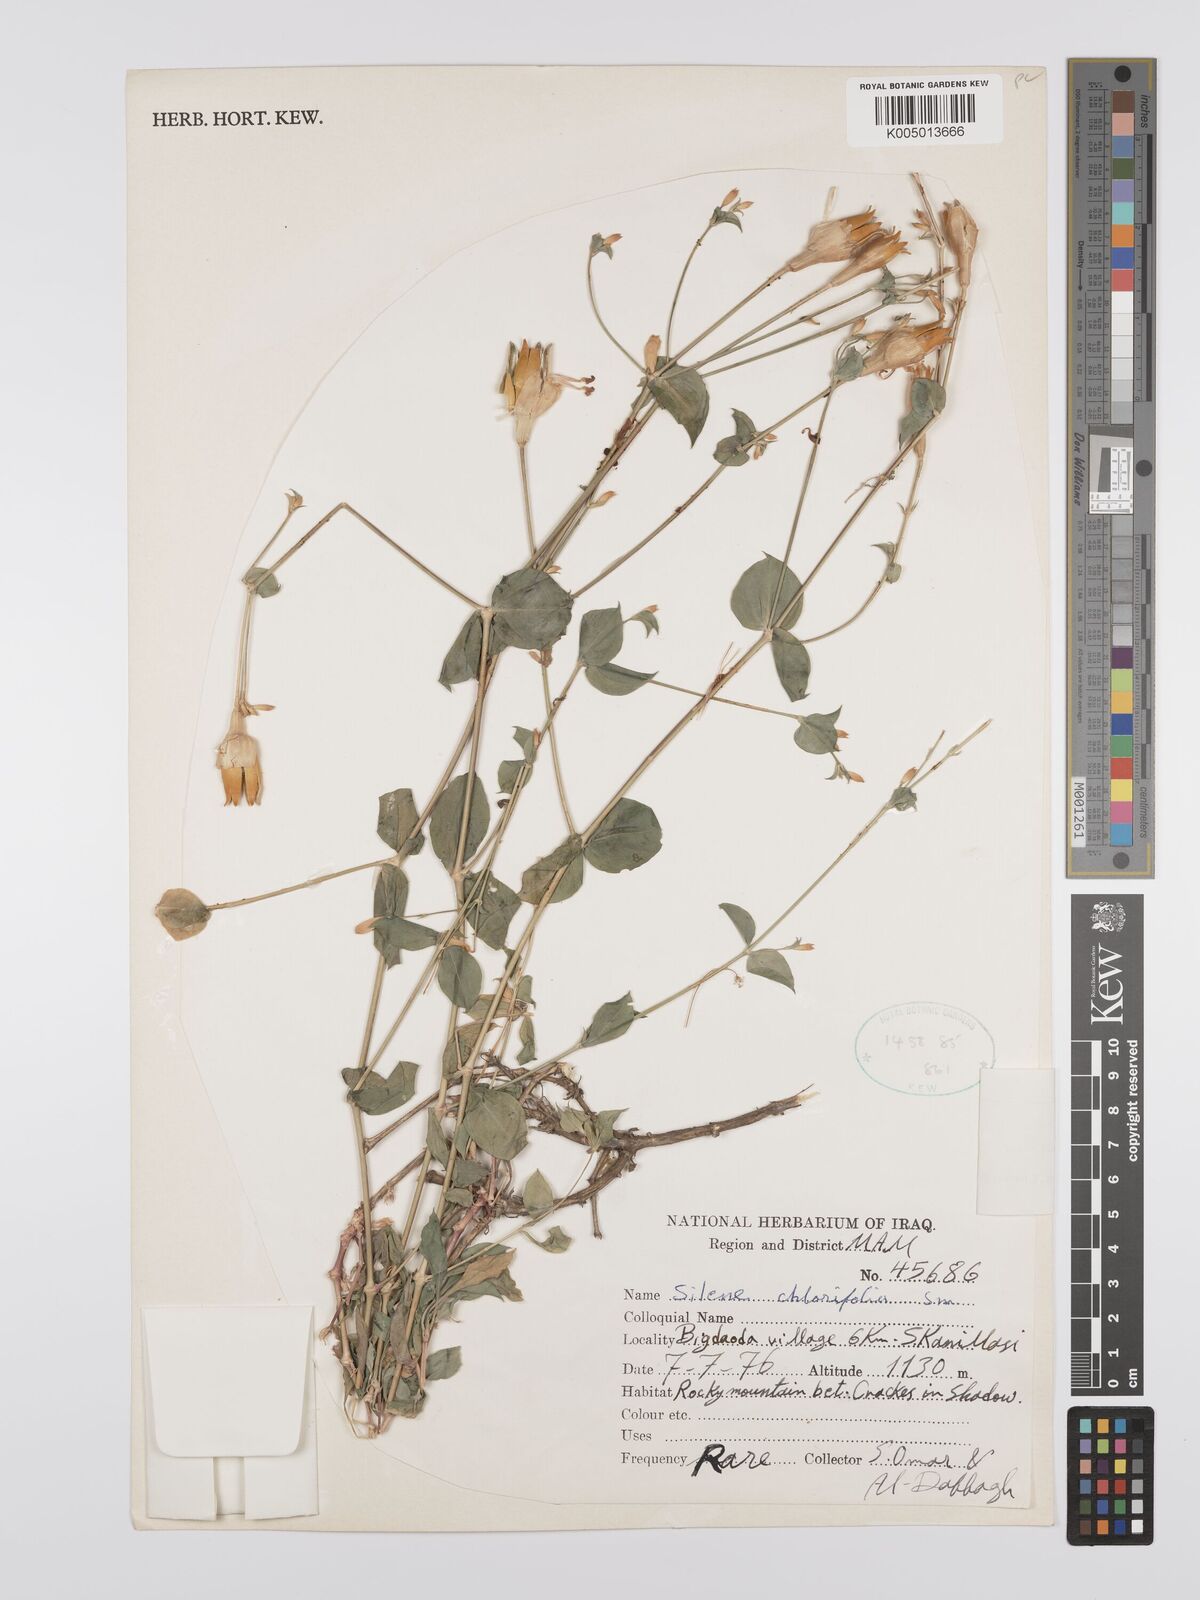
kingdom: Plantae
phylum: Tracheophyta
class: Magnoliopsida
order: Caryophyllales
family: Caryophyllaceae
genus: Silene
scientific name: Silene chlorifolia
